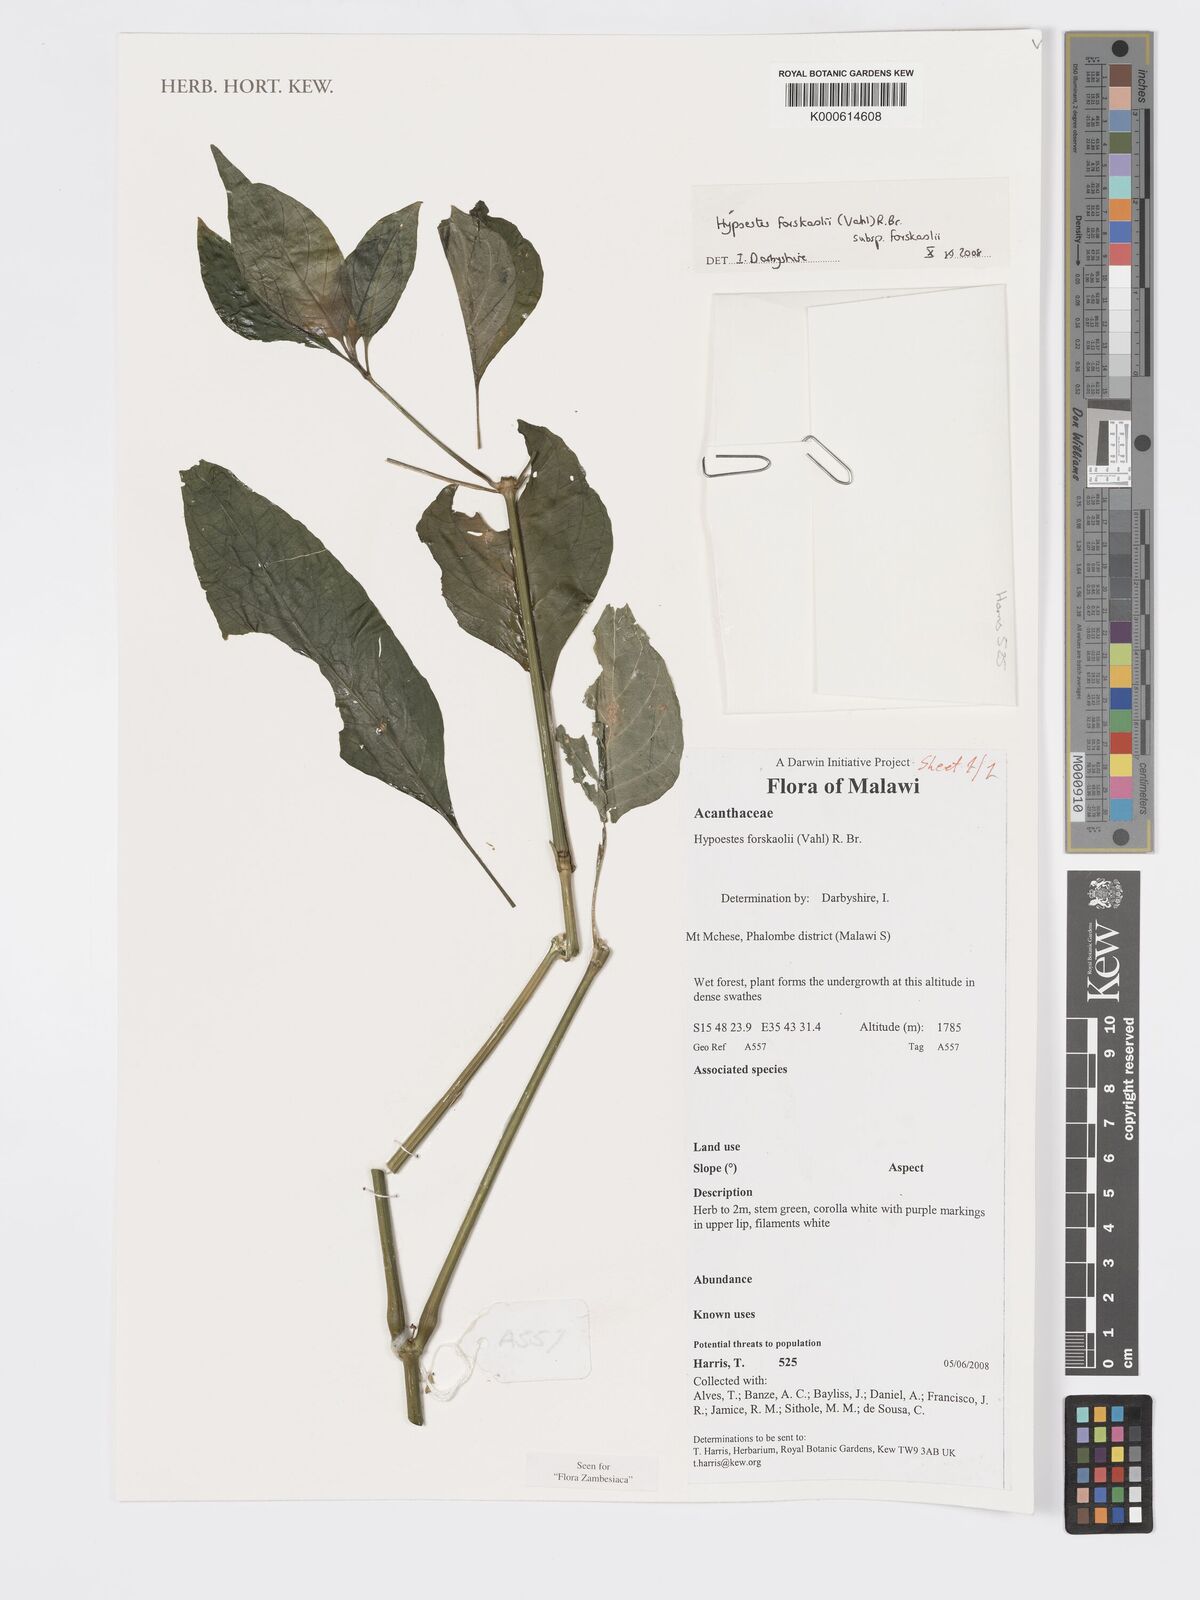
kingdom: Plantae
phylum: Tracheophyta
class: Magnoliopsida
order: Lamiales
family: Acanthaceae
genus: Hypoestes
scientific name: Hypoestes forskaolii
